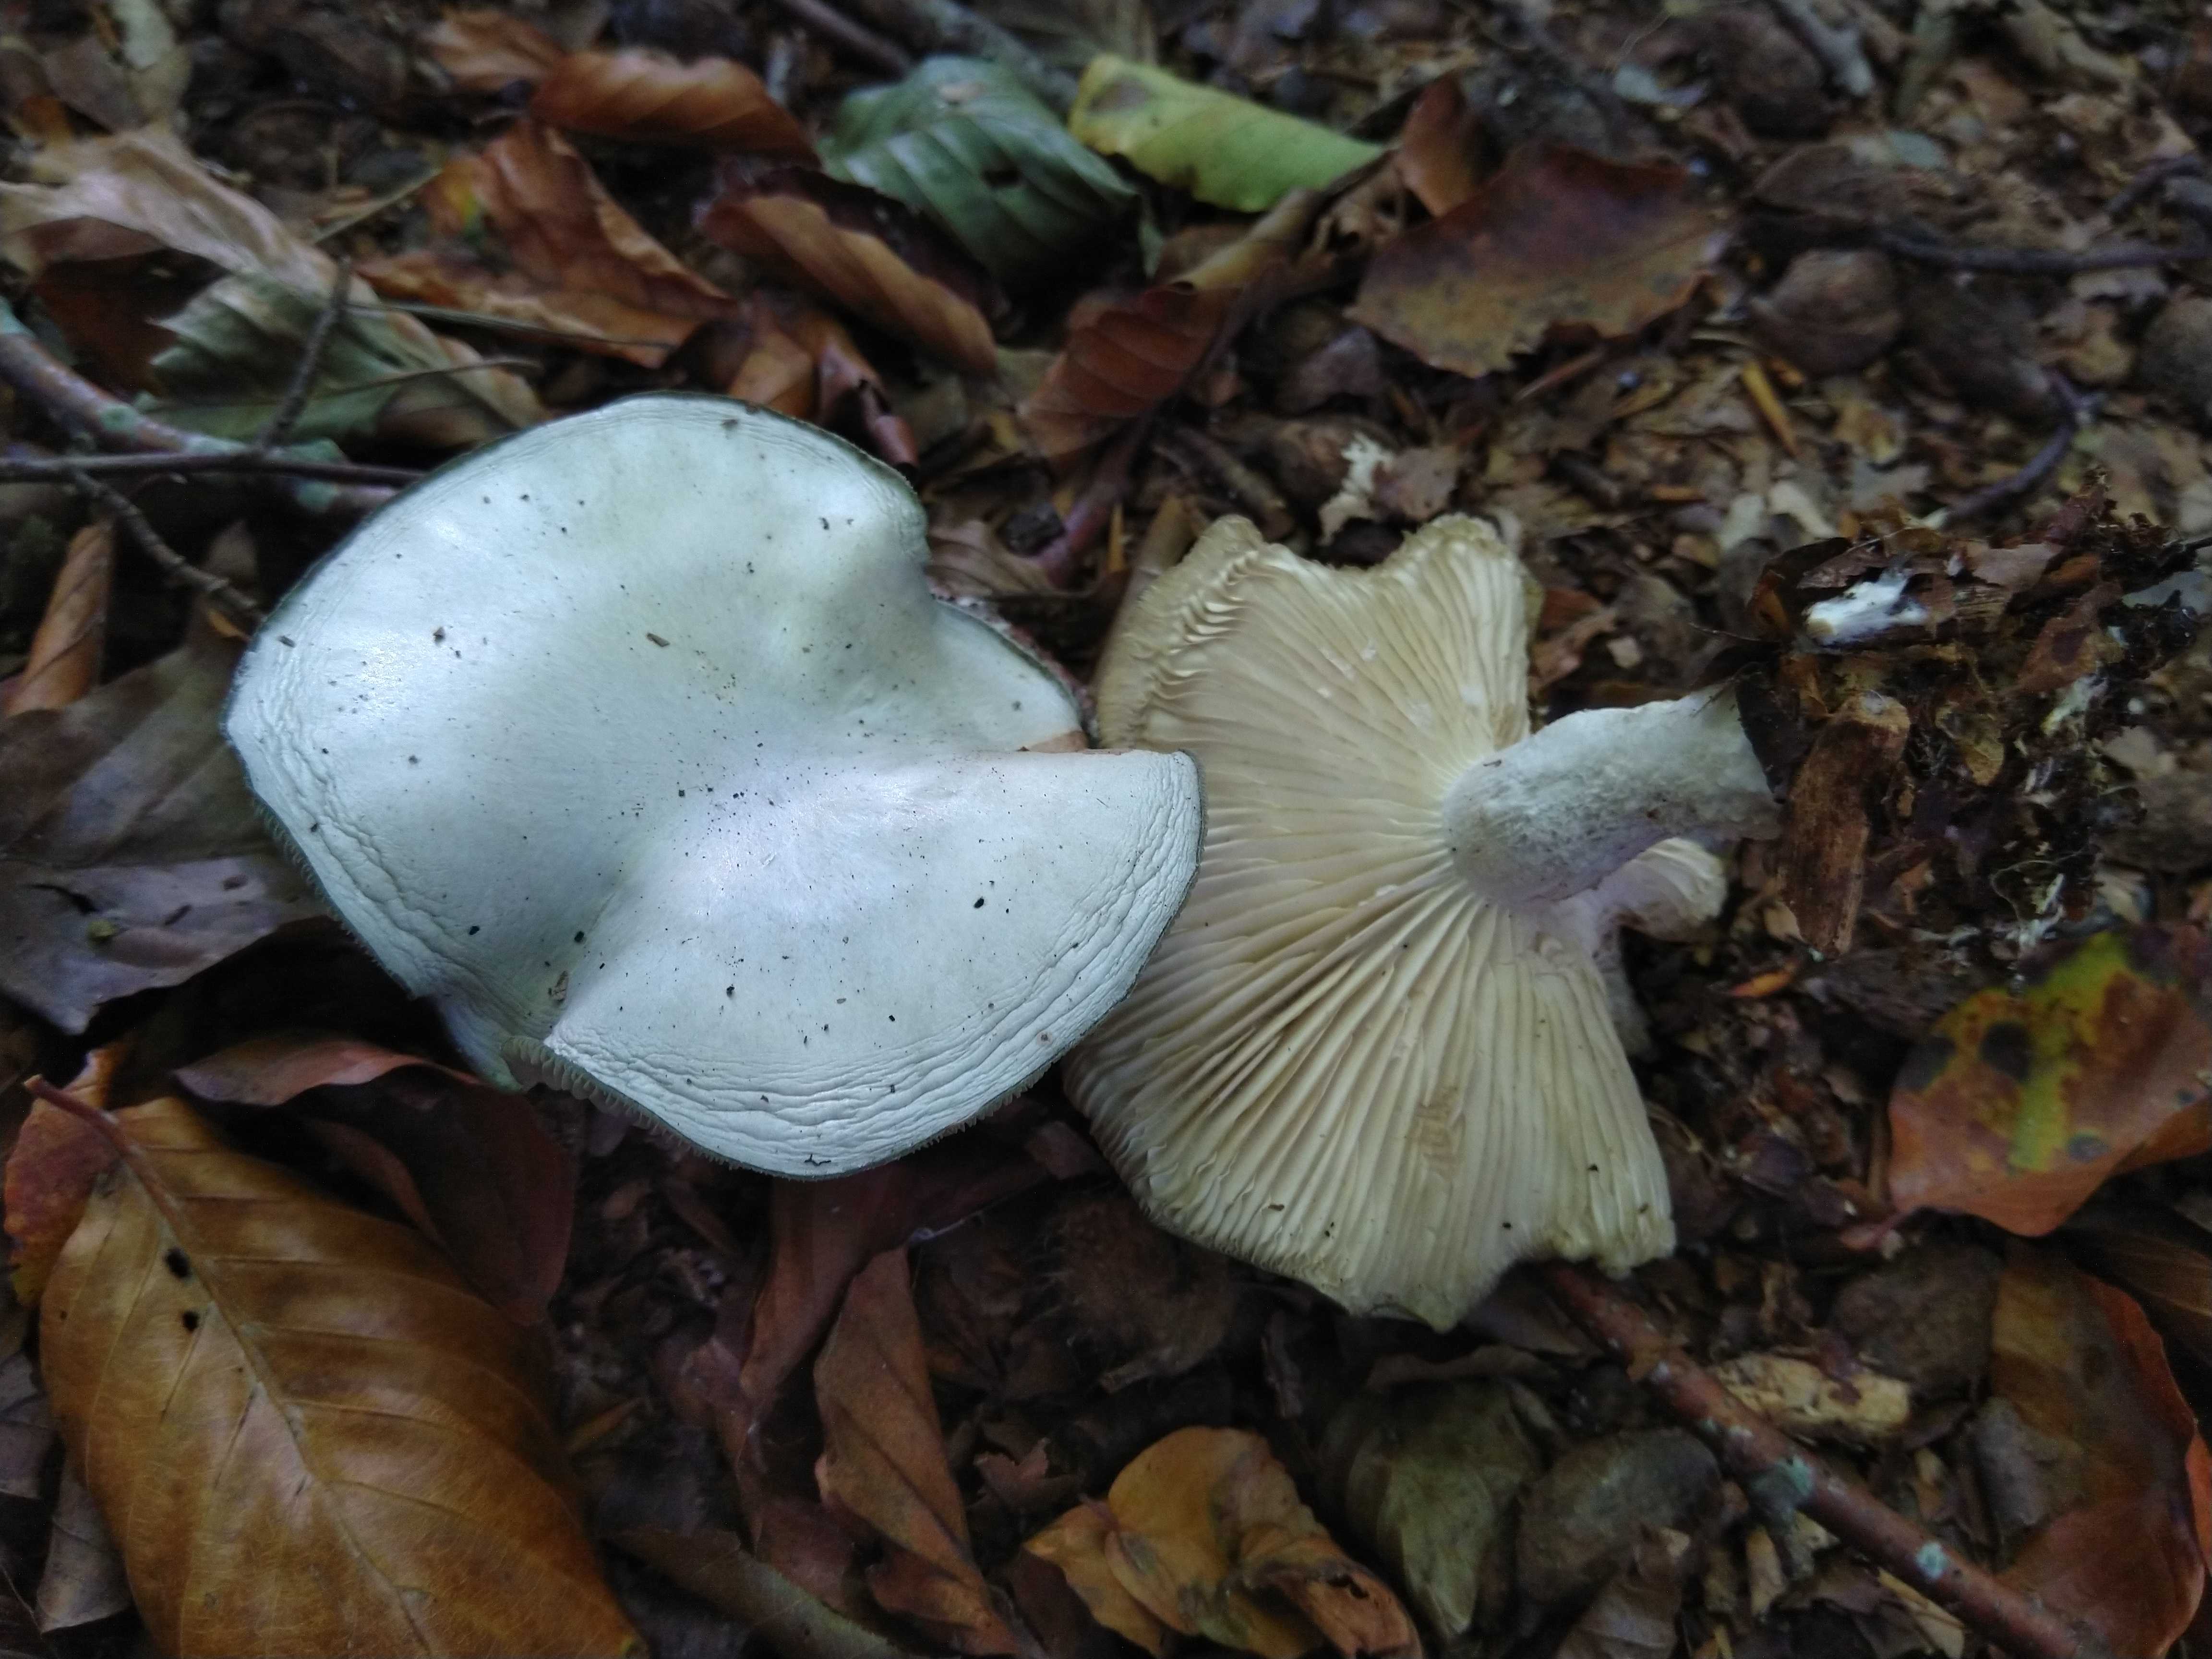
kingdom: Fungi
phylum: Basidiomycota
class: Agaricomycetes
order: Agaricales
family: Tricholomataceae
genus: Clitocybe
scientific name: Clitocybe odora
